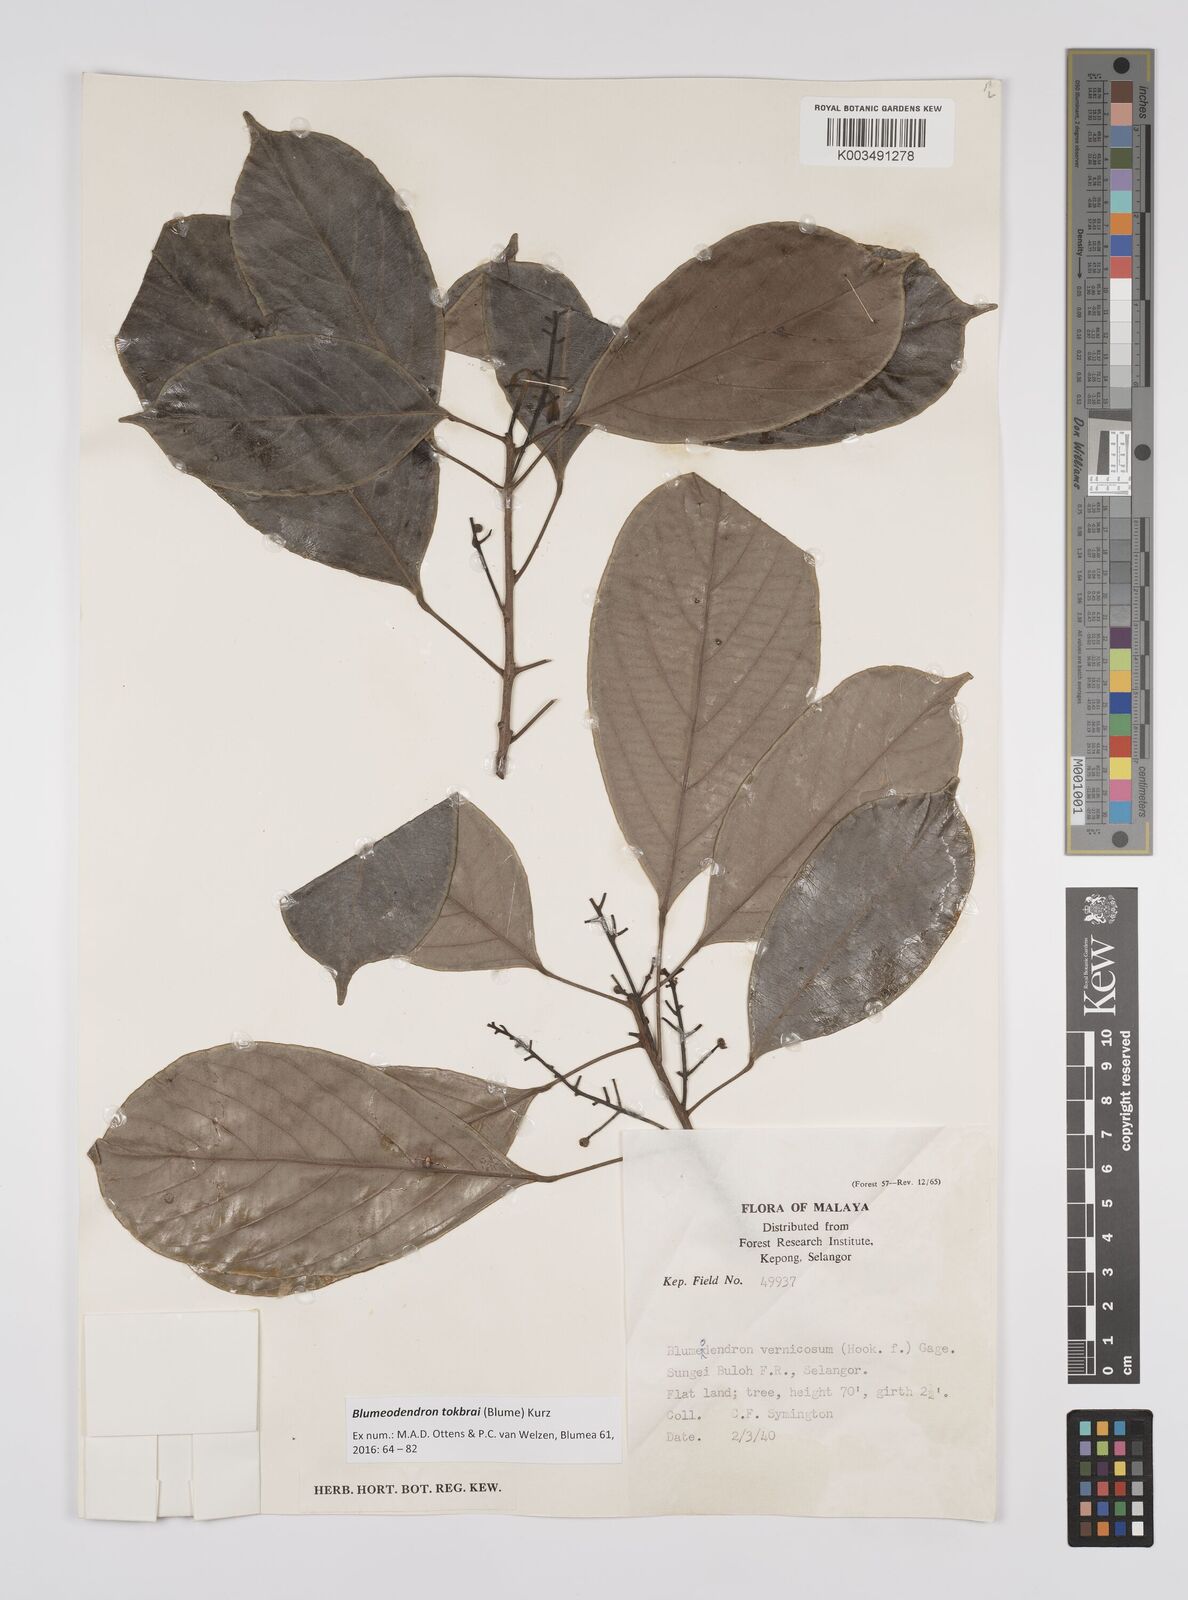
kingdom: Plantae
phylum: Tracheophyta
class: Magnoliopsida
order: Malpighiales
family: Euphorbiaceae
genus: Blumeodendron
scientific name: Blumeodendron tokbrai
